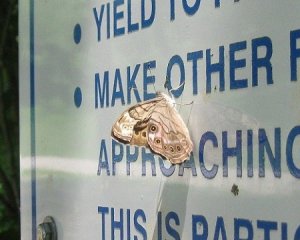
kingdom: Animalia
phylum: Arthropoda
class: Insecta
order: Lepidoptera
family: Nymphalidae
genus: Lethe
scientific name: Lethe anthedon
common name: Northern Pearly-Eye
